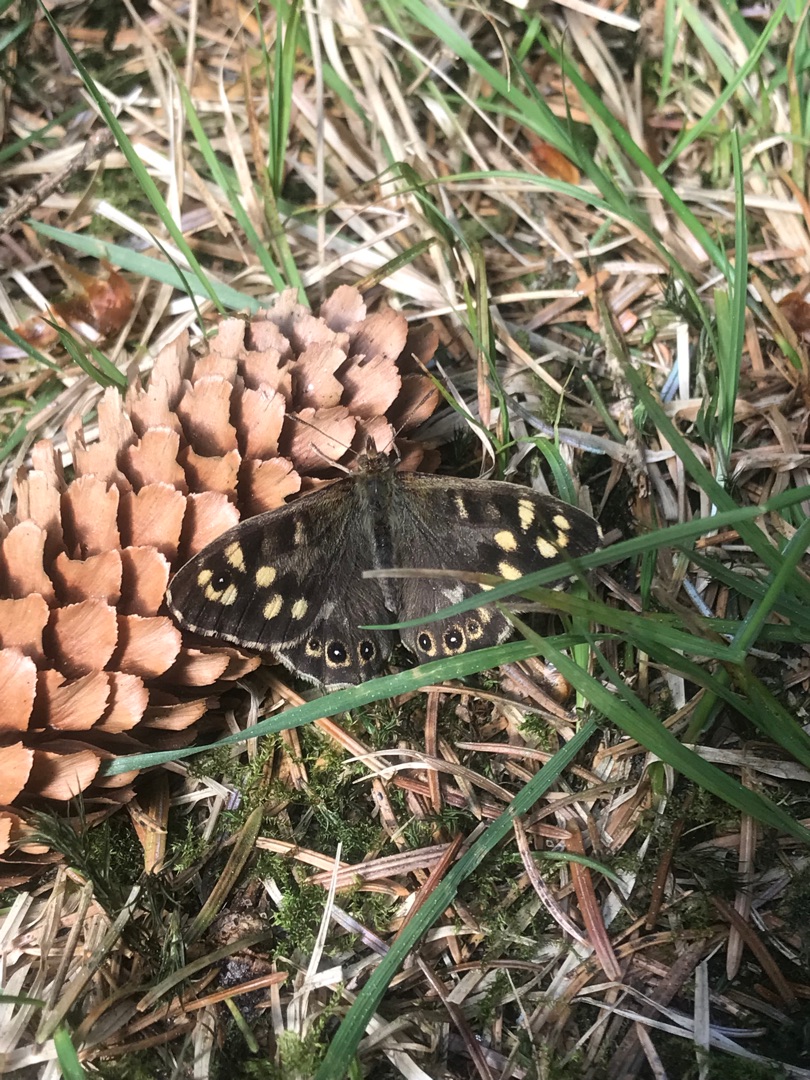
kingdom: Animalia
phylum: Arthropoda
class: Insecta
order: Lepidoptera
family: Nymphalidae
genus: Pararge
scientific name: Pararge aegeria
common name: Skovrandøje
